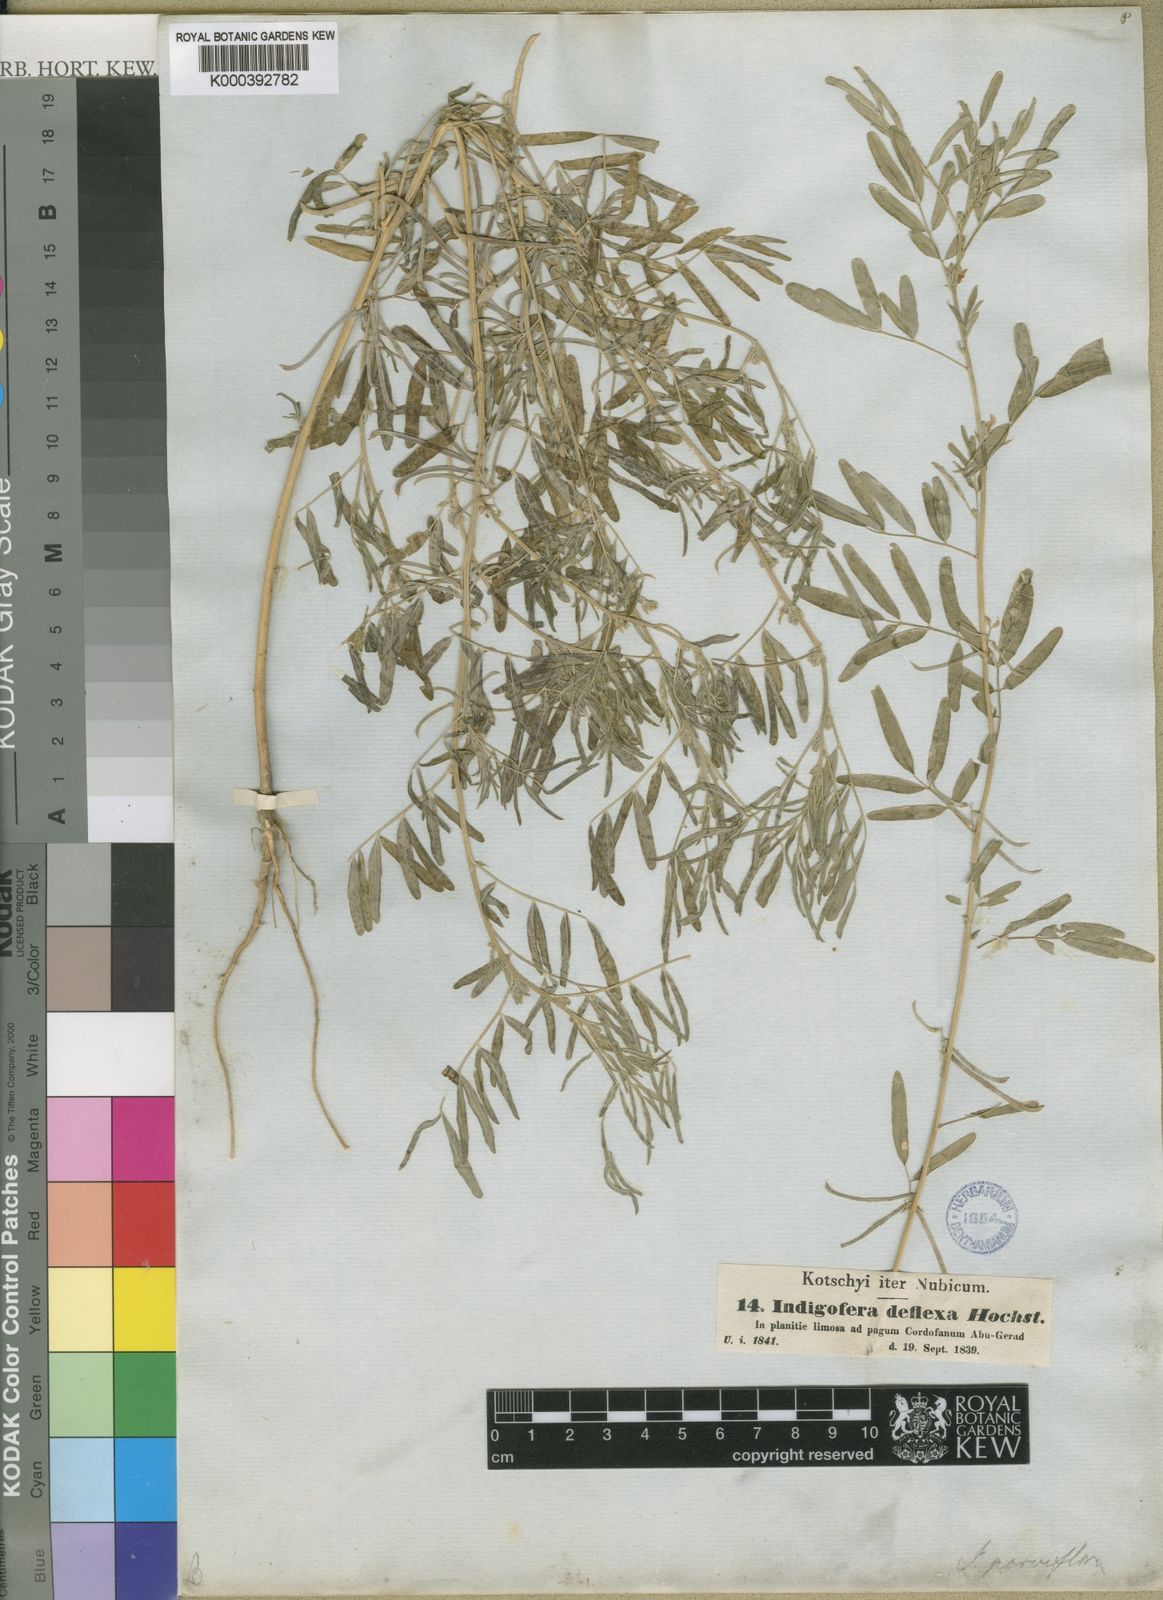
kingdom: Plantae
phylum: Tracheophyta
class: Magnoliopsida
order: Fabales
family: Fabaceae
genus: Indigofera
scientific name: Indigofera
